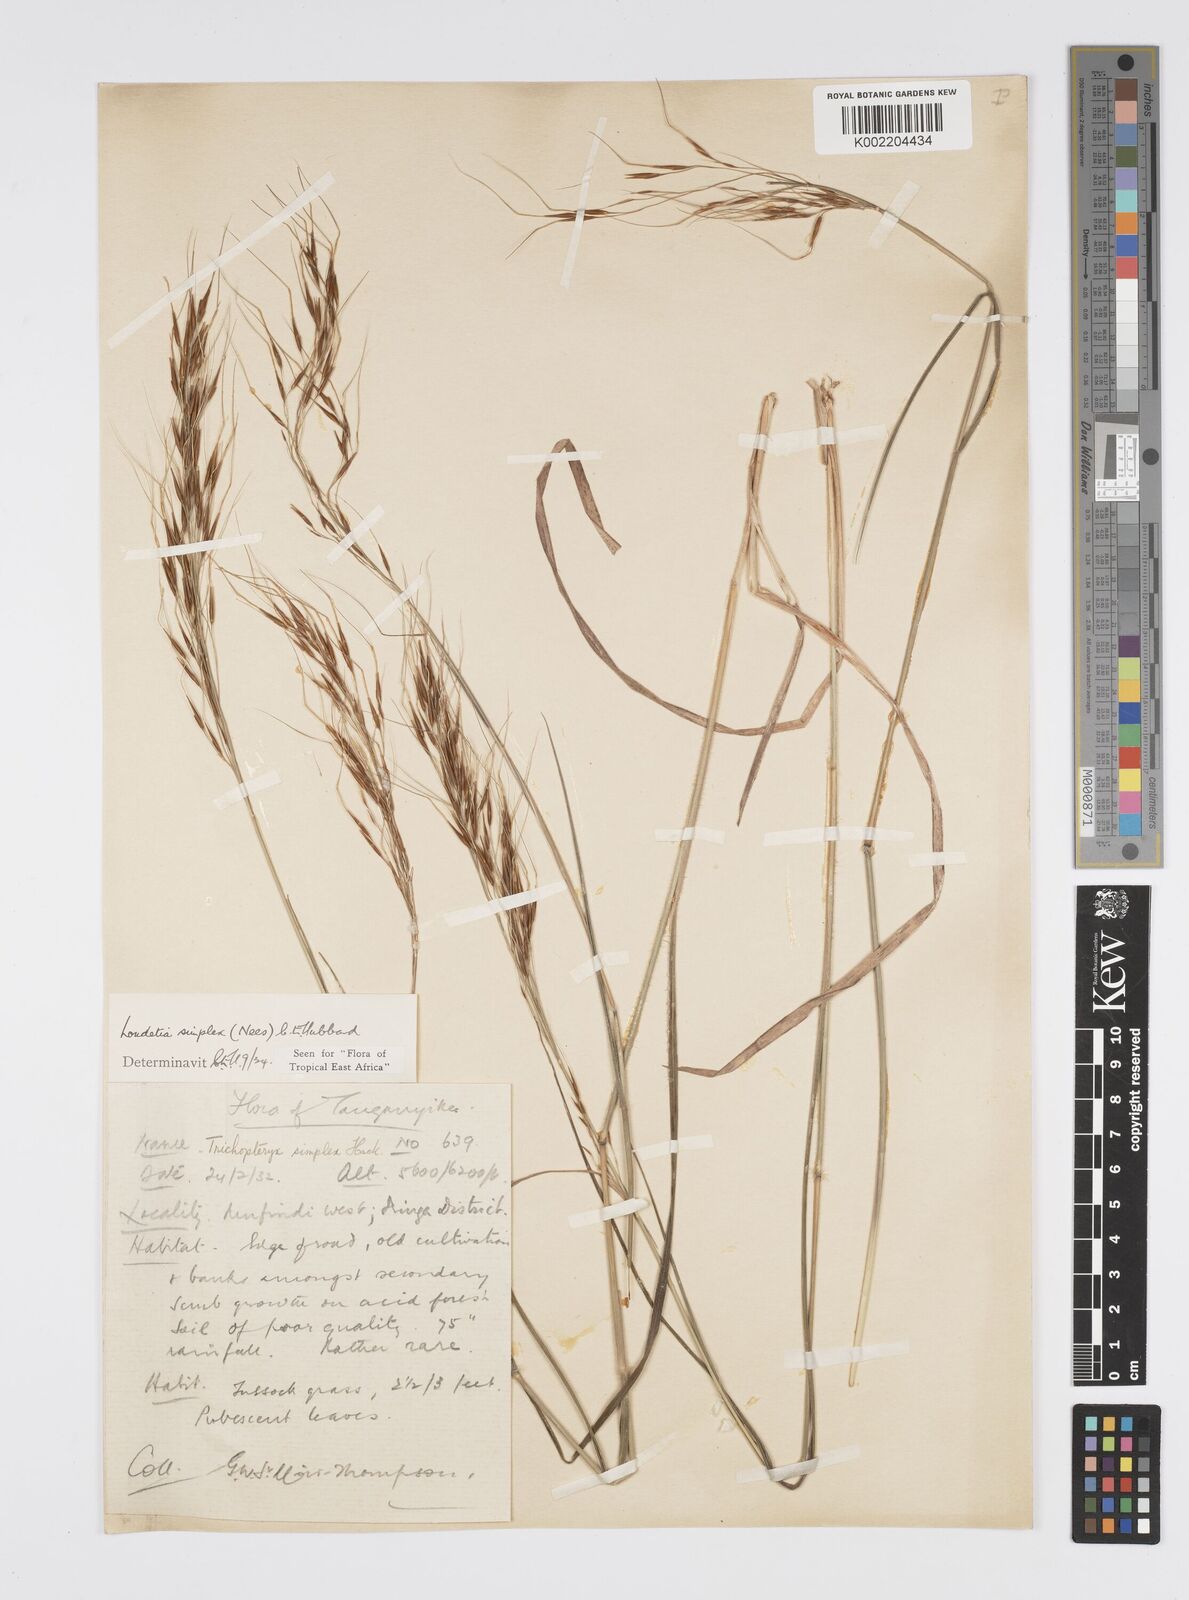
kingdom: Plantae
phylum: Tracheophyta
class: Liliopsida
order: Poales
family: Poaceae
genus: Loudetia
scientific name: Loudetia simplex
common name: Common russet grass
